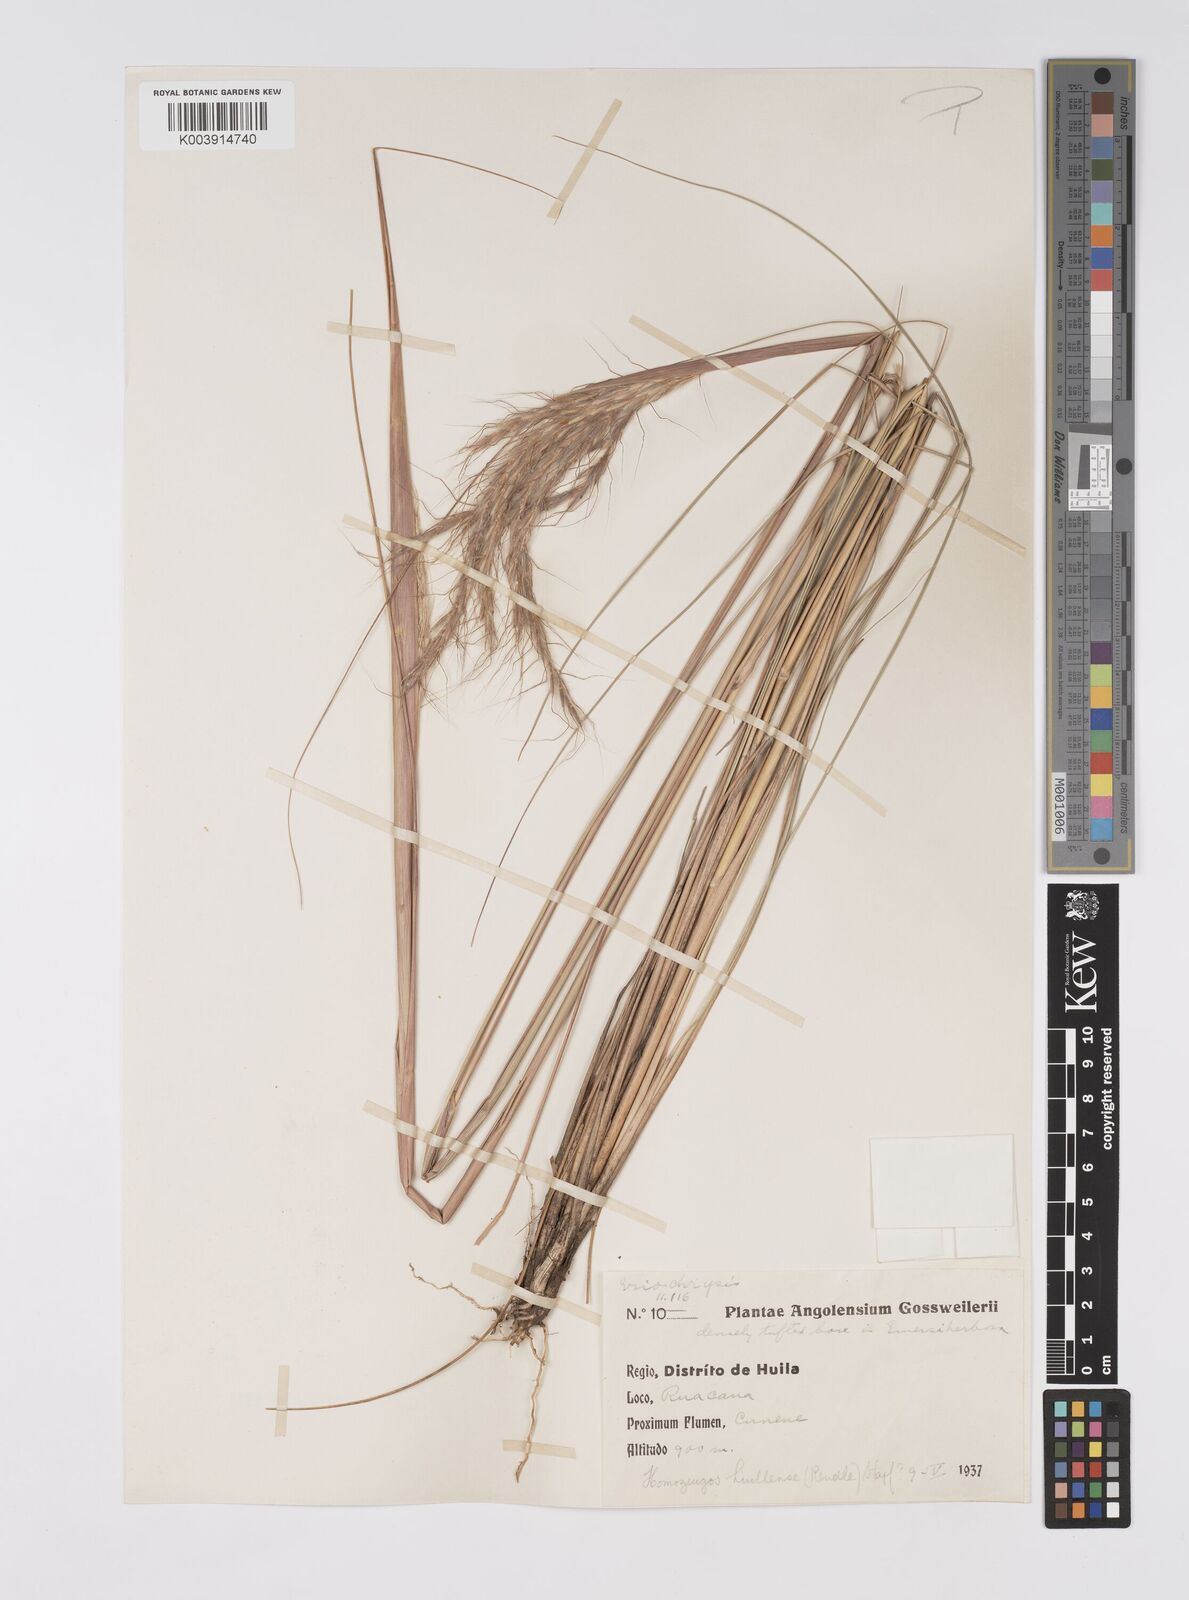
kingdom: Plantae
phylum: Tracheophyta
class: Liliopsida
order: Poales
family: Poaceae
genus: Homozeugos
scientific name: Homozeugos huillense
